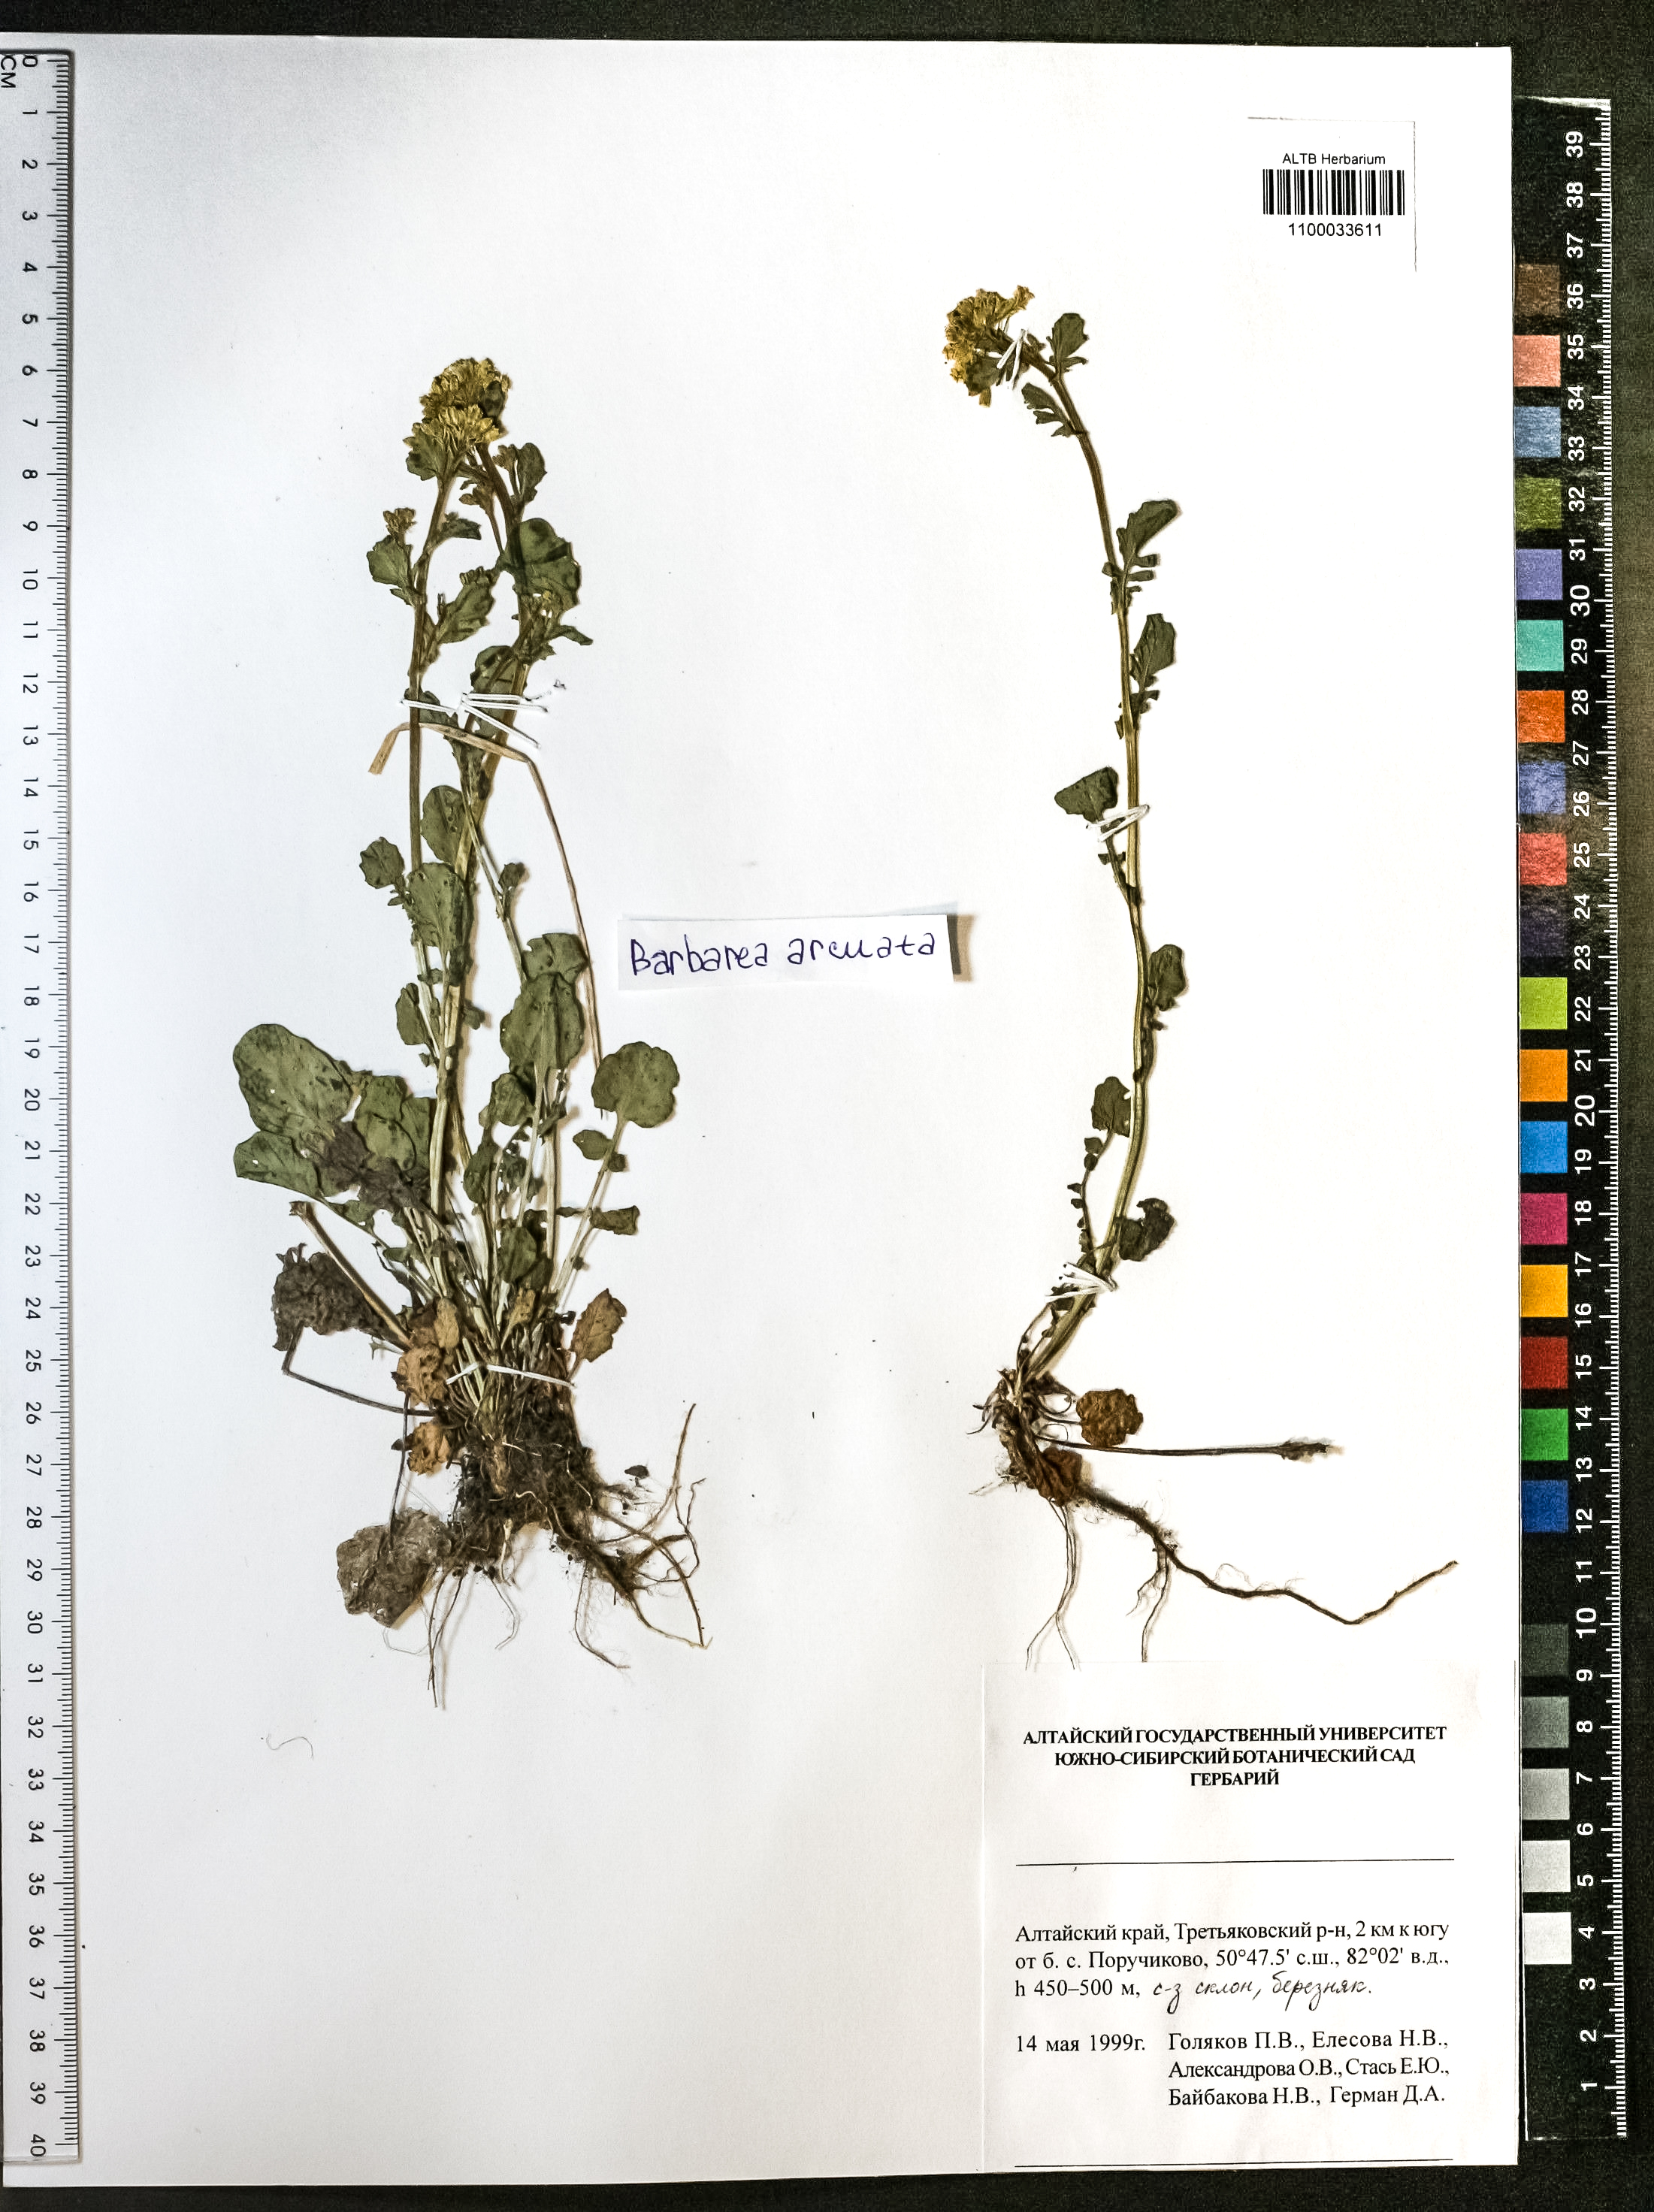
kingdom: Plantae
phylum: Tracheophyta
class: Magnoliopsida
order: Brassicales
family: Brassicaceae
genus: Barbarea
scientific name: Barbarea vulgaris
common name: Cressy-greens
